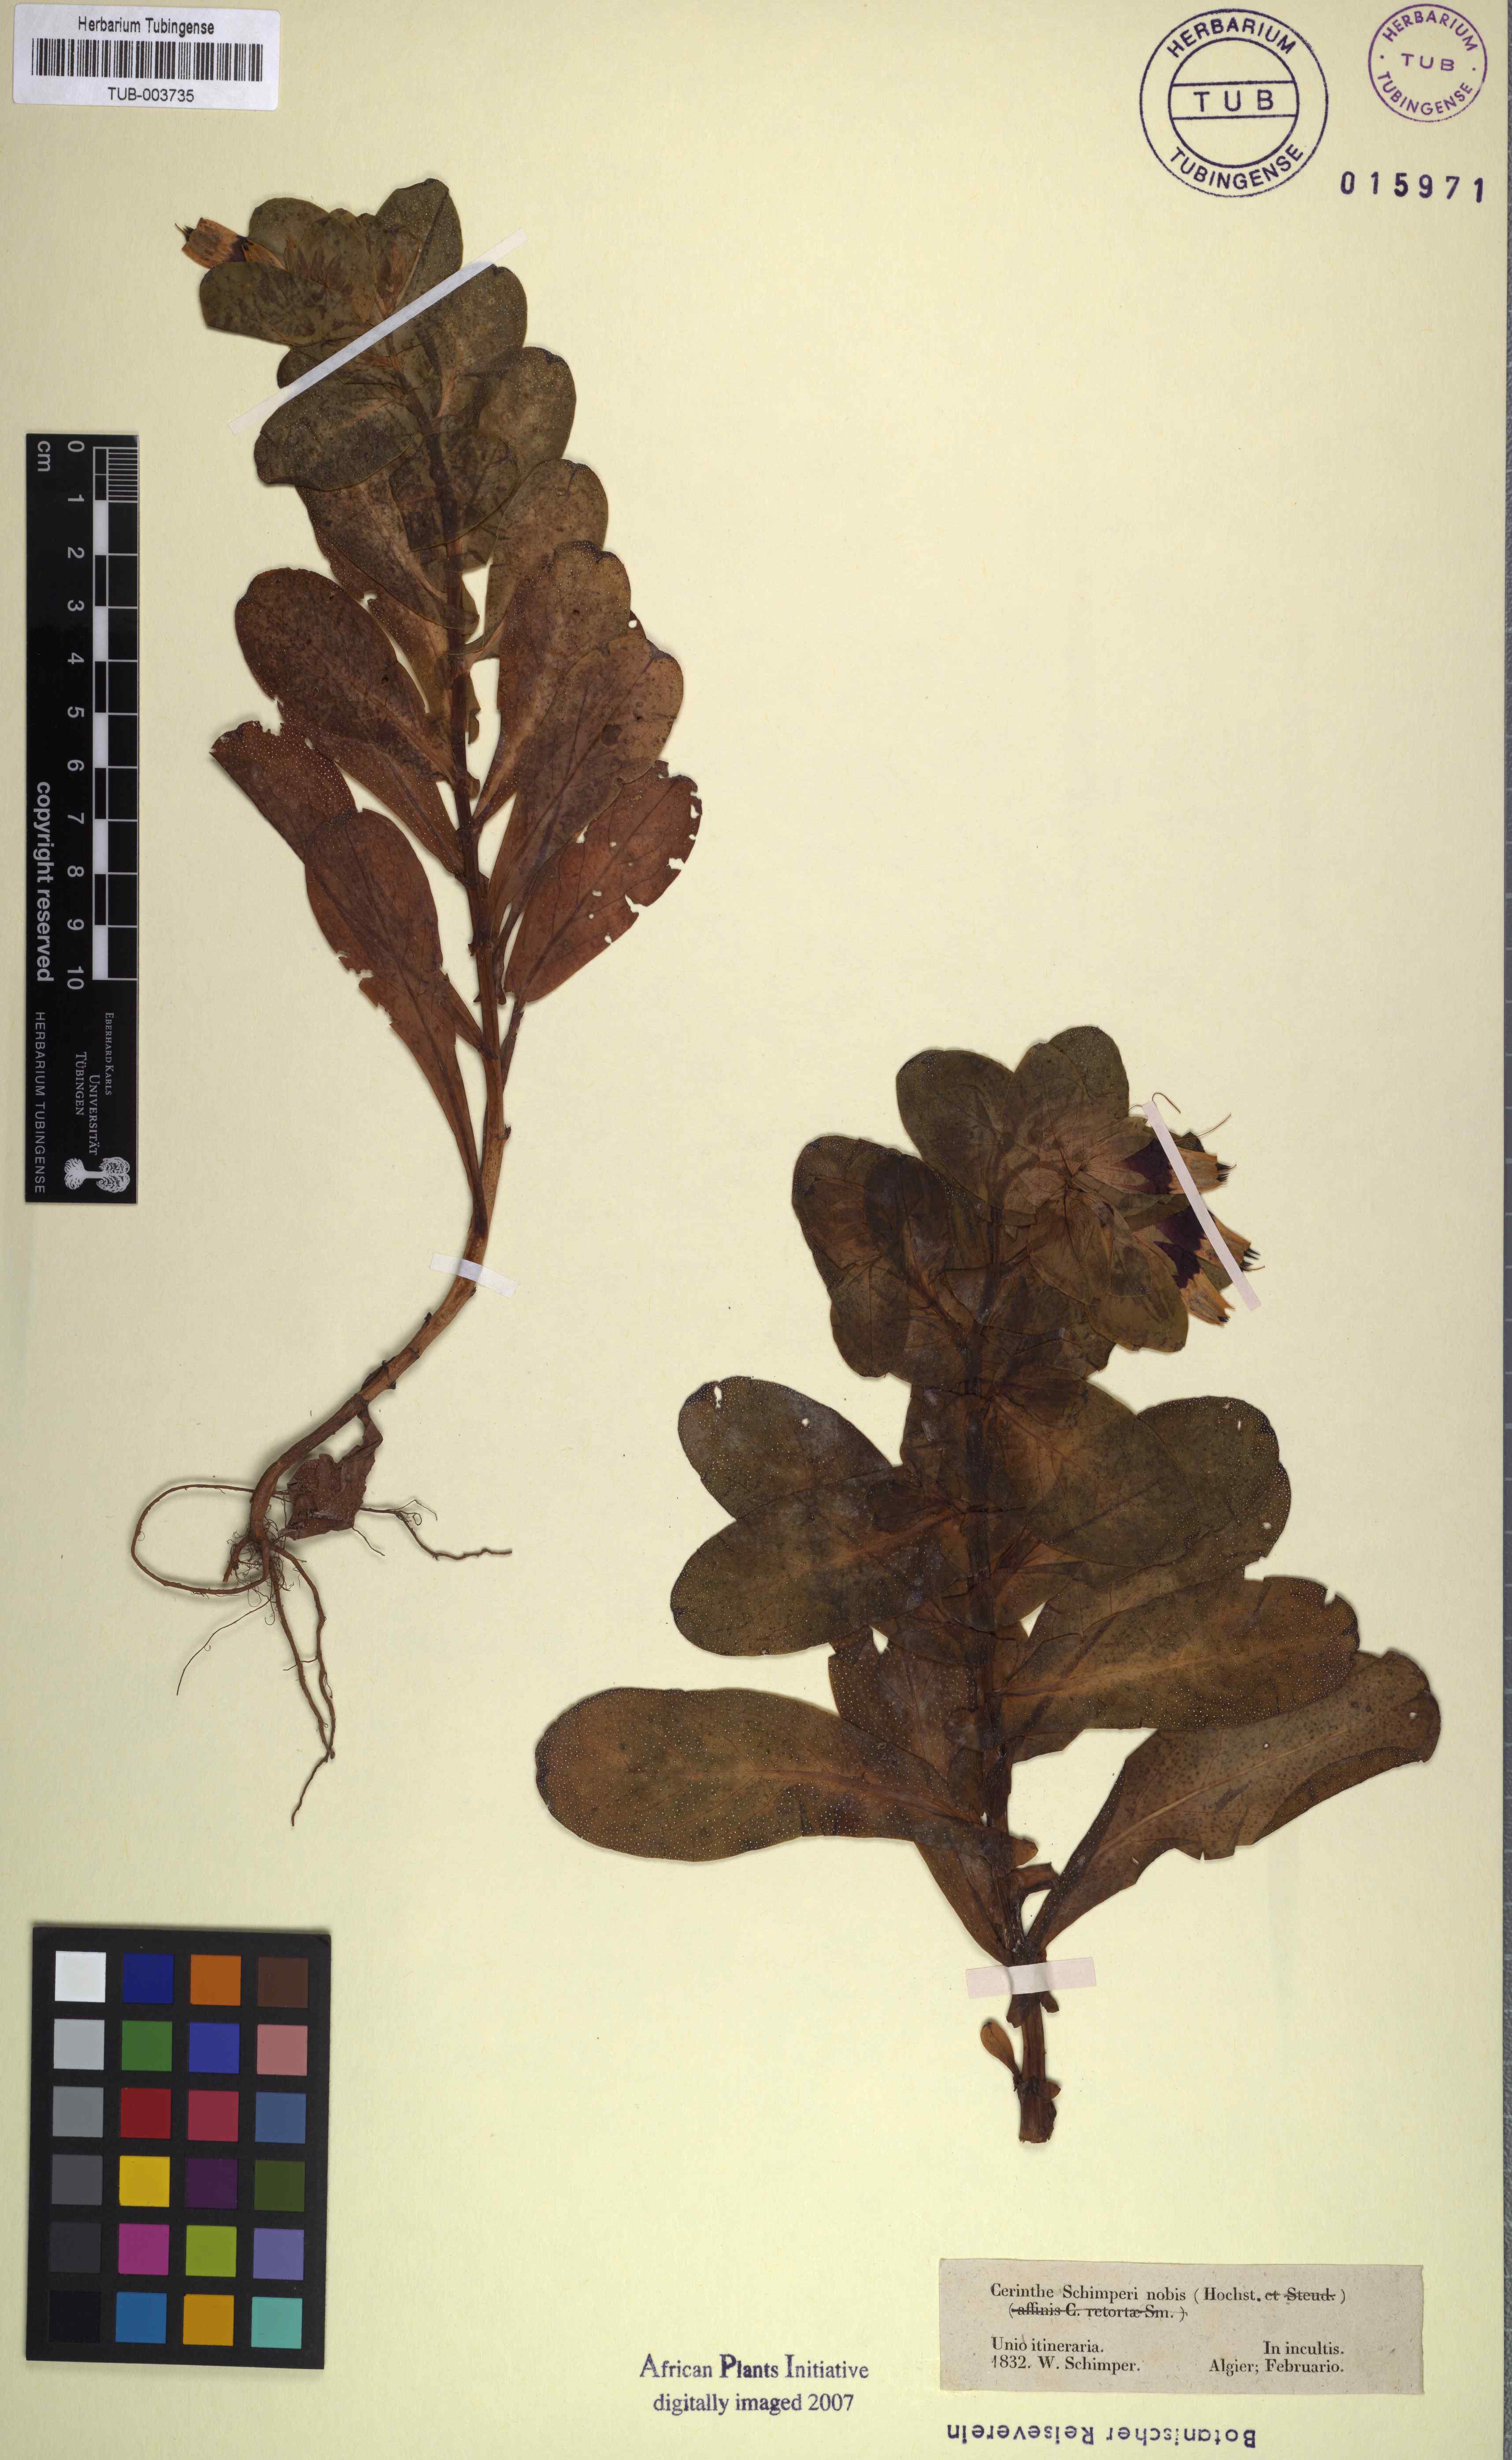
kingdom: Plantae
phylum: Tracheophyta
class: Magnoliopsida
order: Boraginales
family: Boraginaceae
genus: Cerinthe
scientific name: Cerinthe
